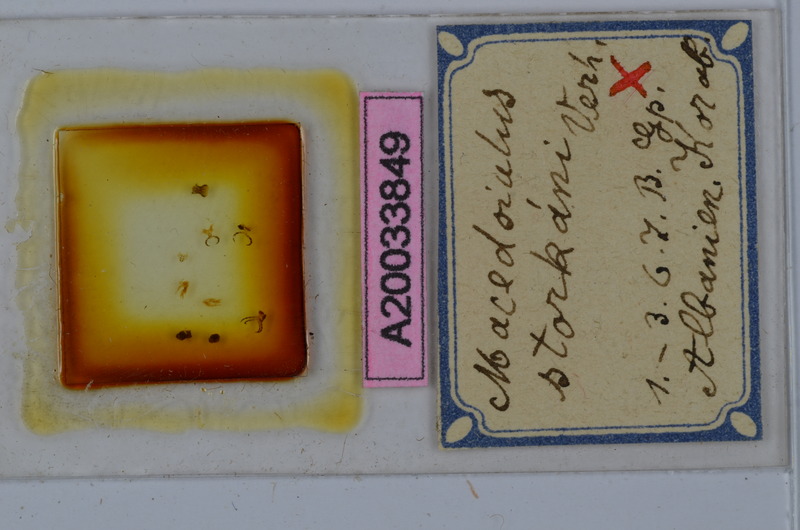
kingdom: Animalia
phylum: Arthropoda
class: Diplopoda
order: Julida
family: Julidae
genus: Leptoiulus
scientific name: Leptoiulus sarajevensis
